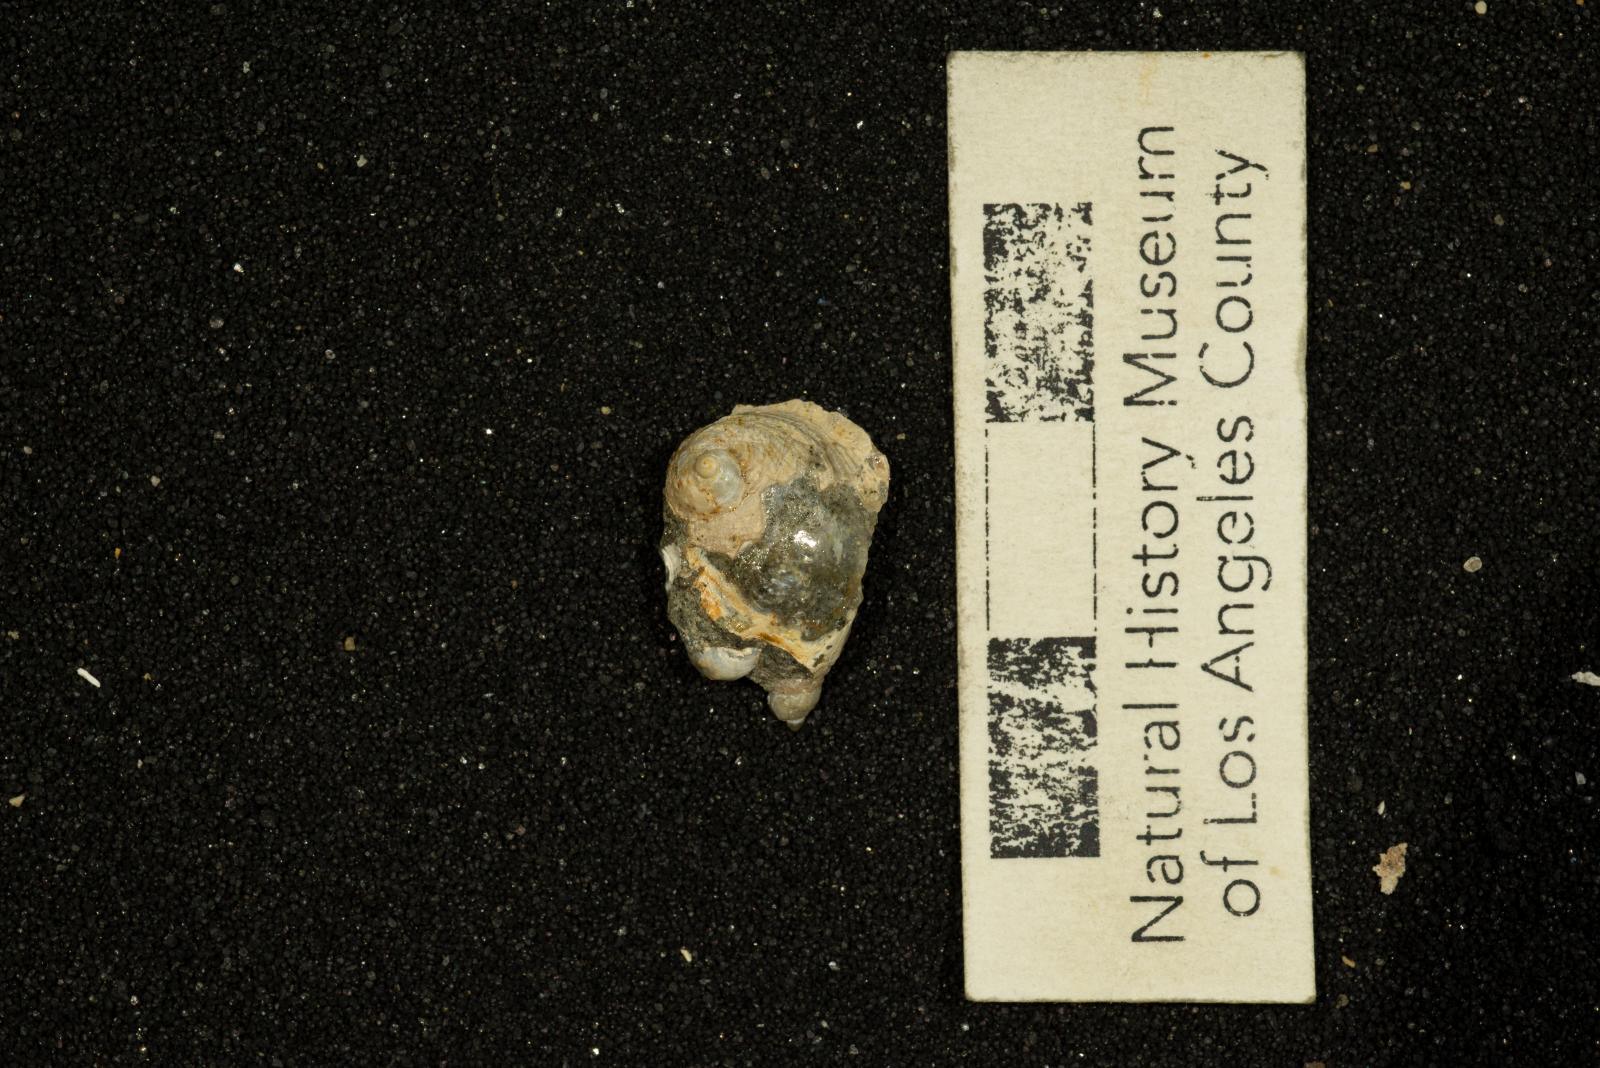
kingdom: Animalia
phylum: Mollusca
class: Gastropoda
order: Littorinimorpha
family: Calyptraeidae
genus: Lysis
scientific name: Lysis duplicosta
